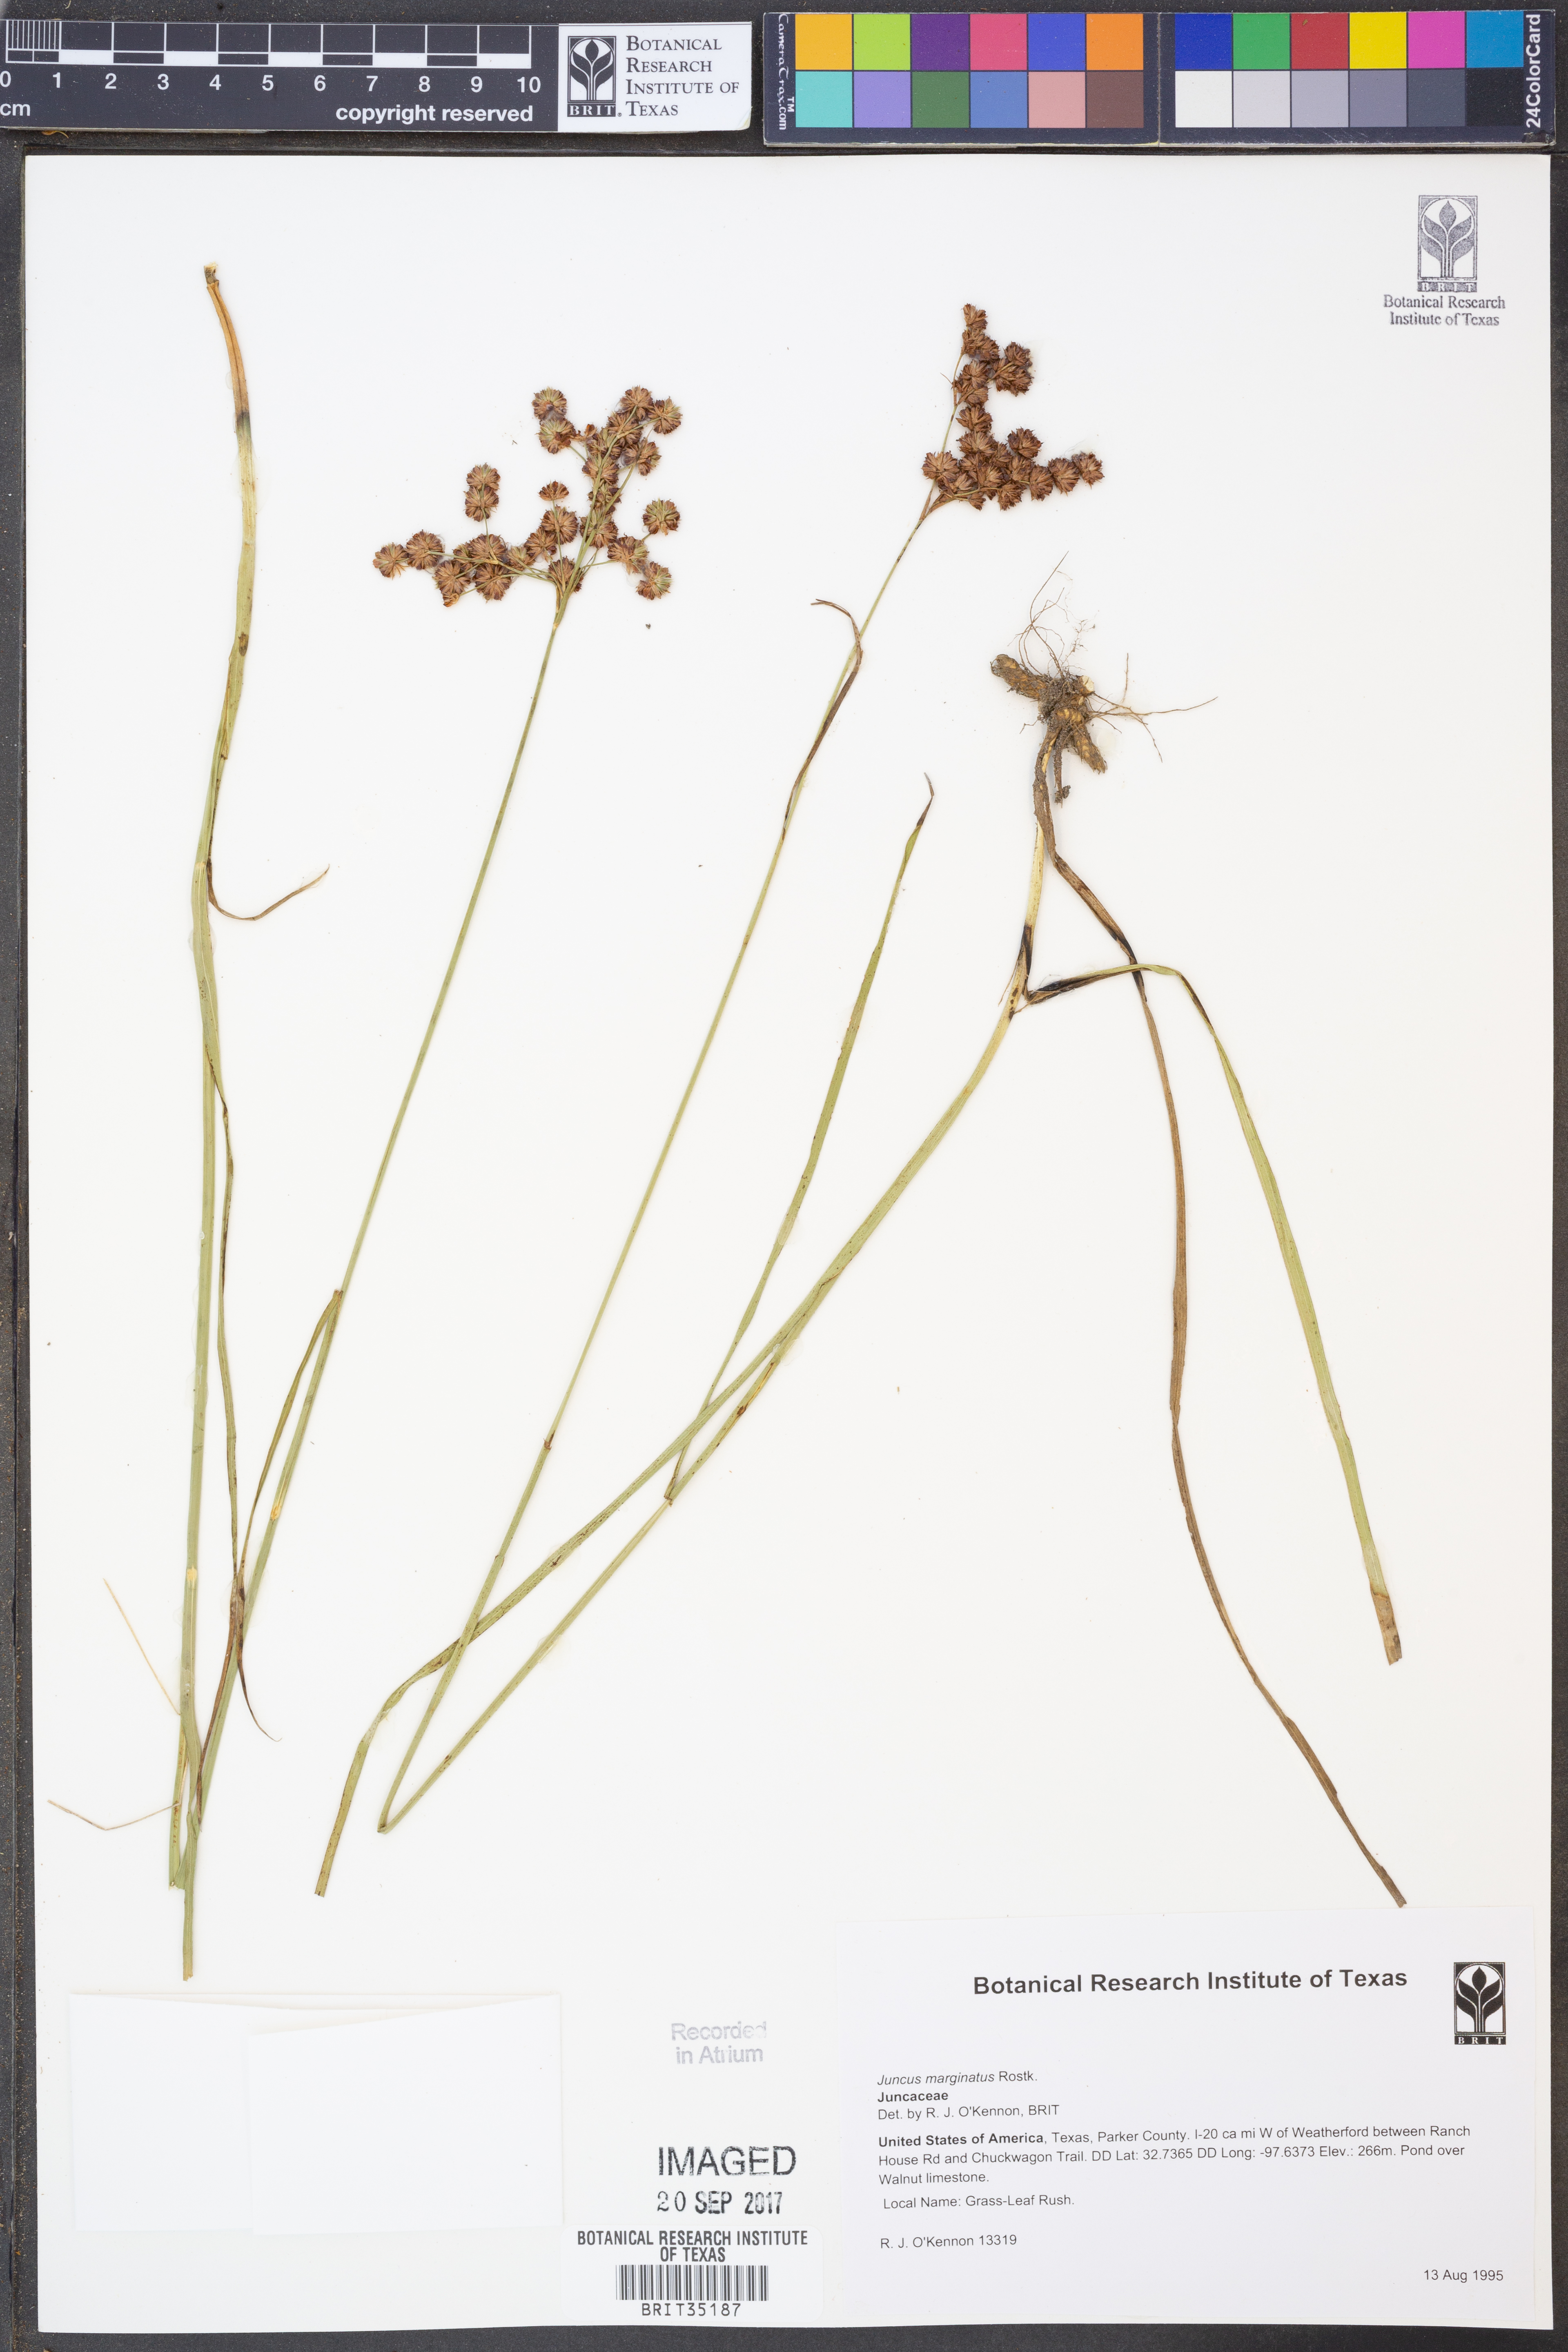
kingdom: Plantae
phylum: Tracheophyta
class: Liliopsida
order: Poales
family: Juncaceae
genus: Juncus
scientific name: Juncus marginatus
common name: Grass-leaf rush
